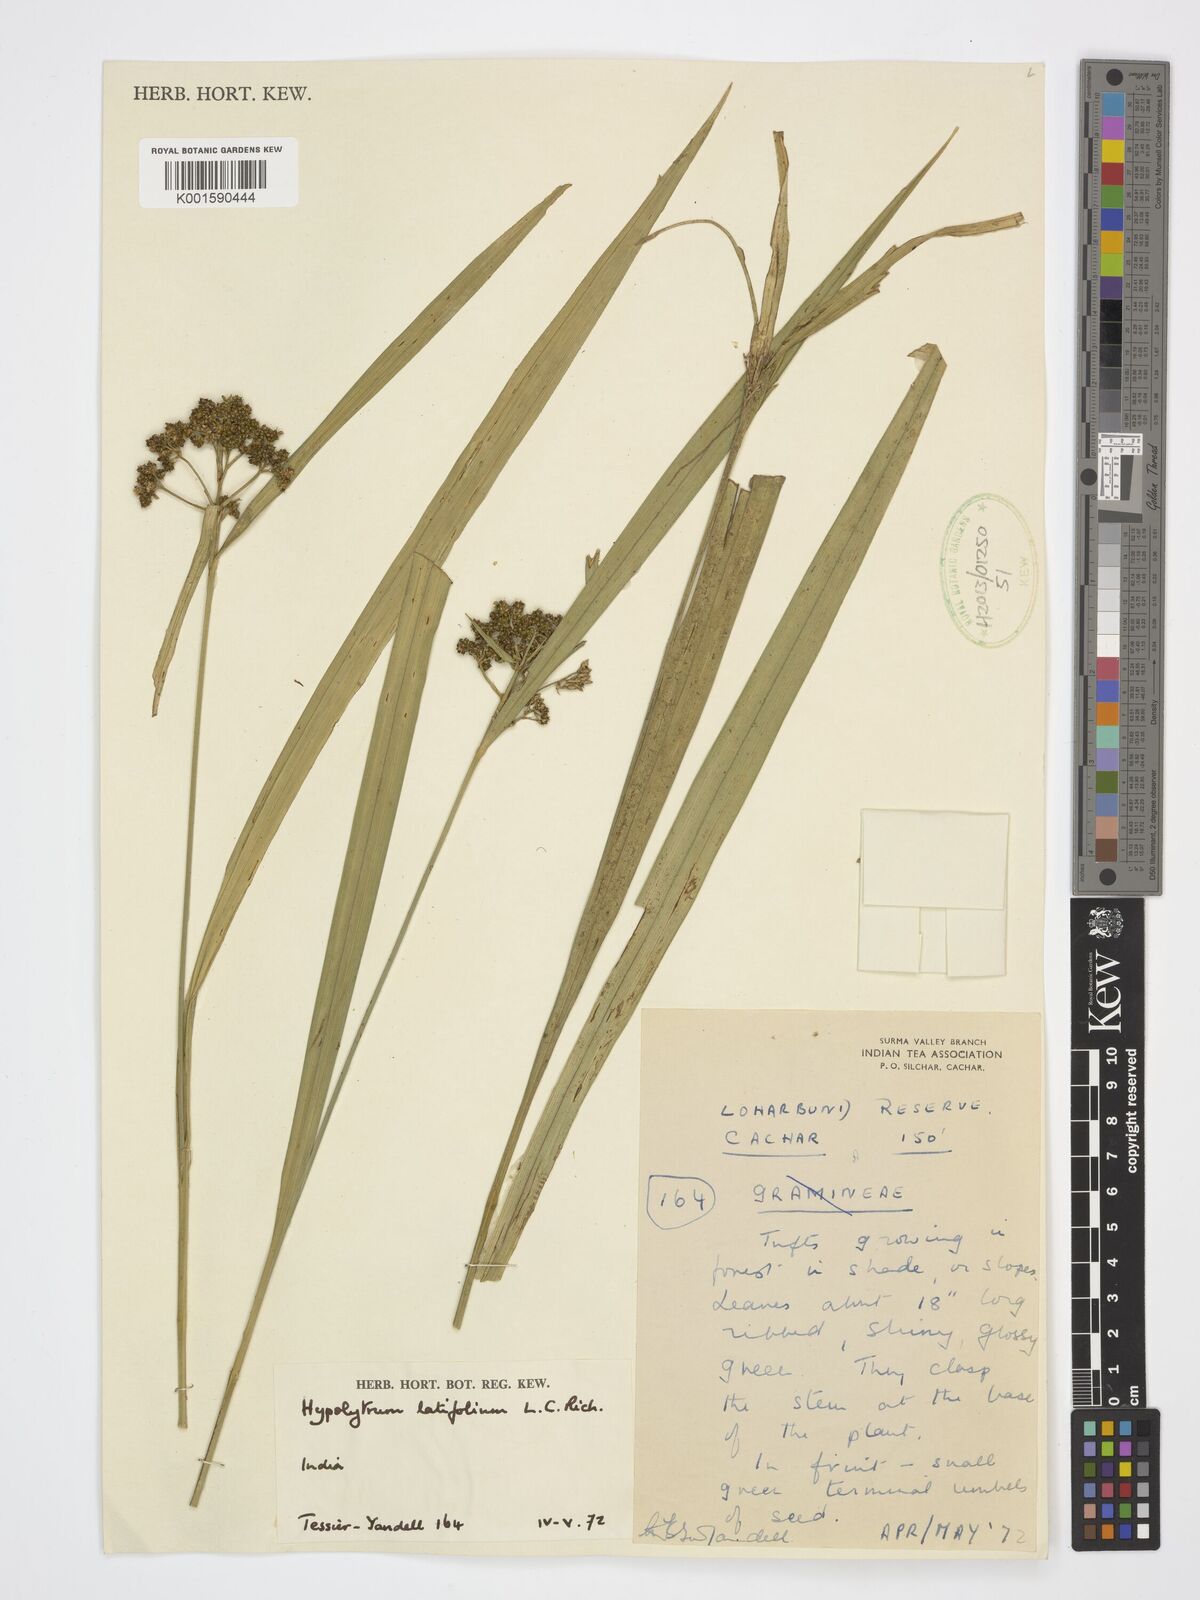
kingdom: Plantae
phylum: Tracheophyta
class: Liliopsida
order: Poales
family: Cyperaceae
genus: Hypolytrum
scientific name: Hypolytrum
